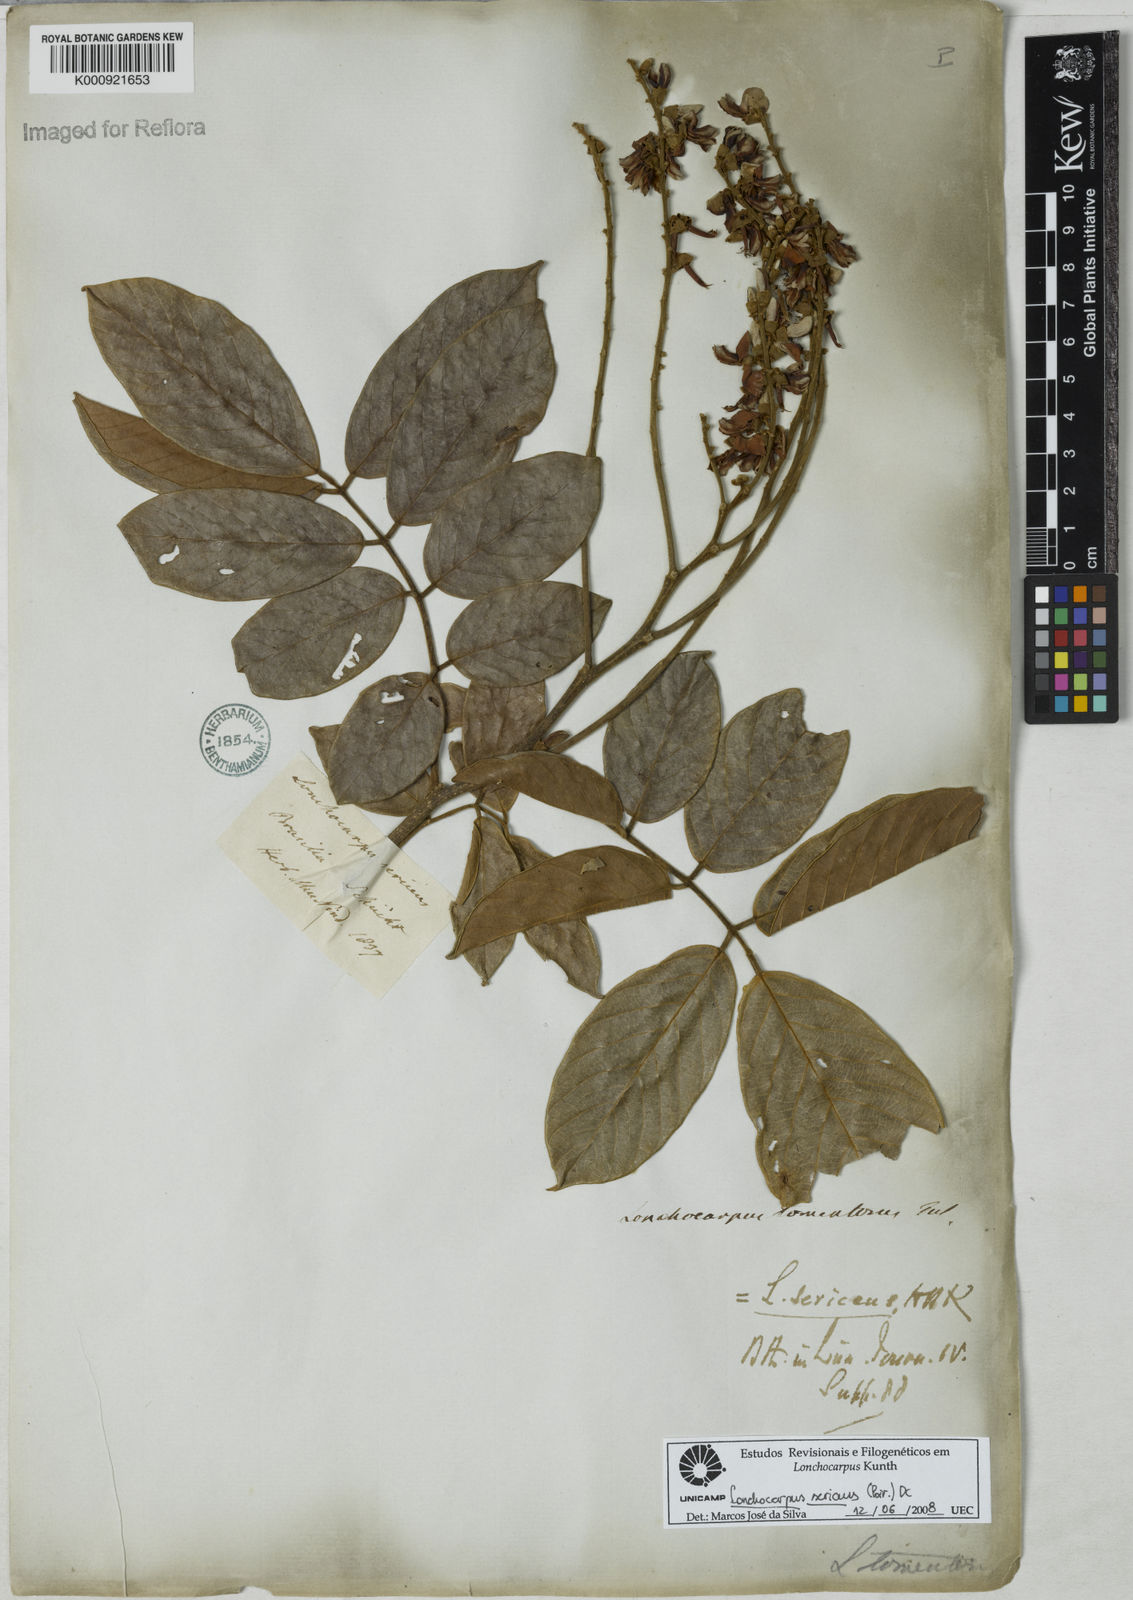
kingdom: Plantae
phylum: Tracheophyta
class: Magnoliopsida
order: Fabales
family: Fabaceae
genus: Lonchocarpus
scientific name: Lonchocarpus
